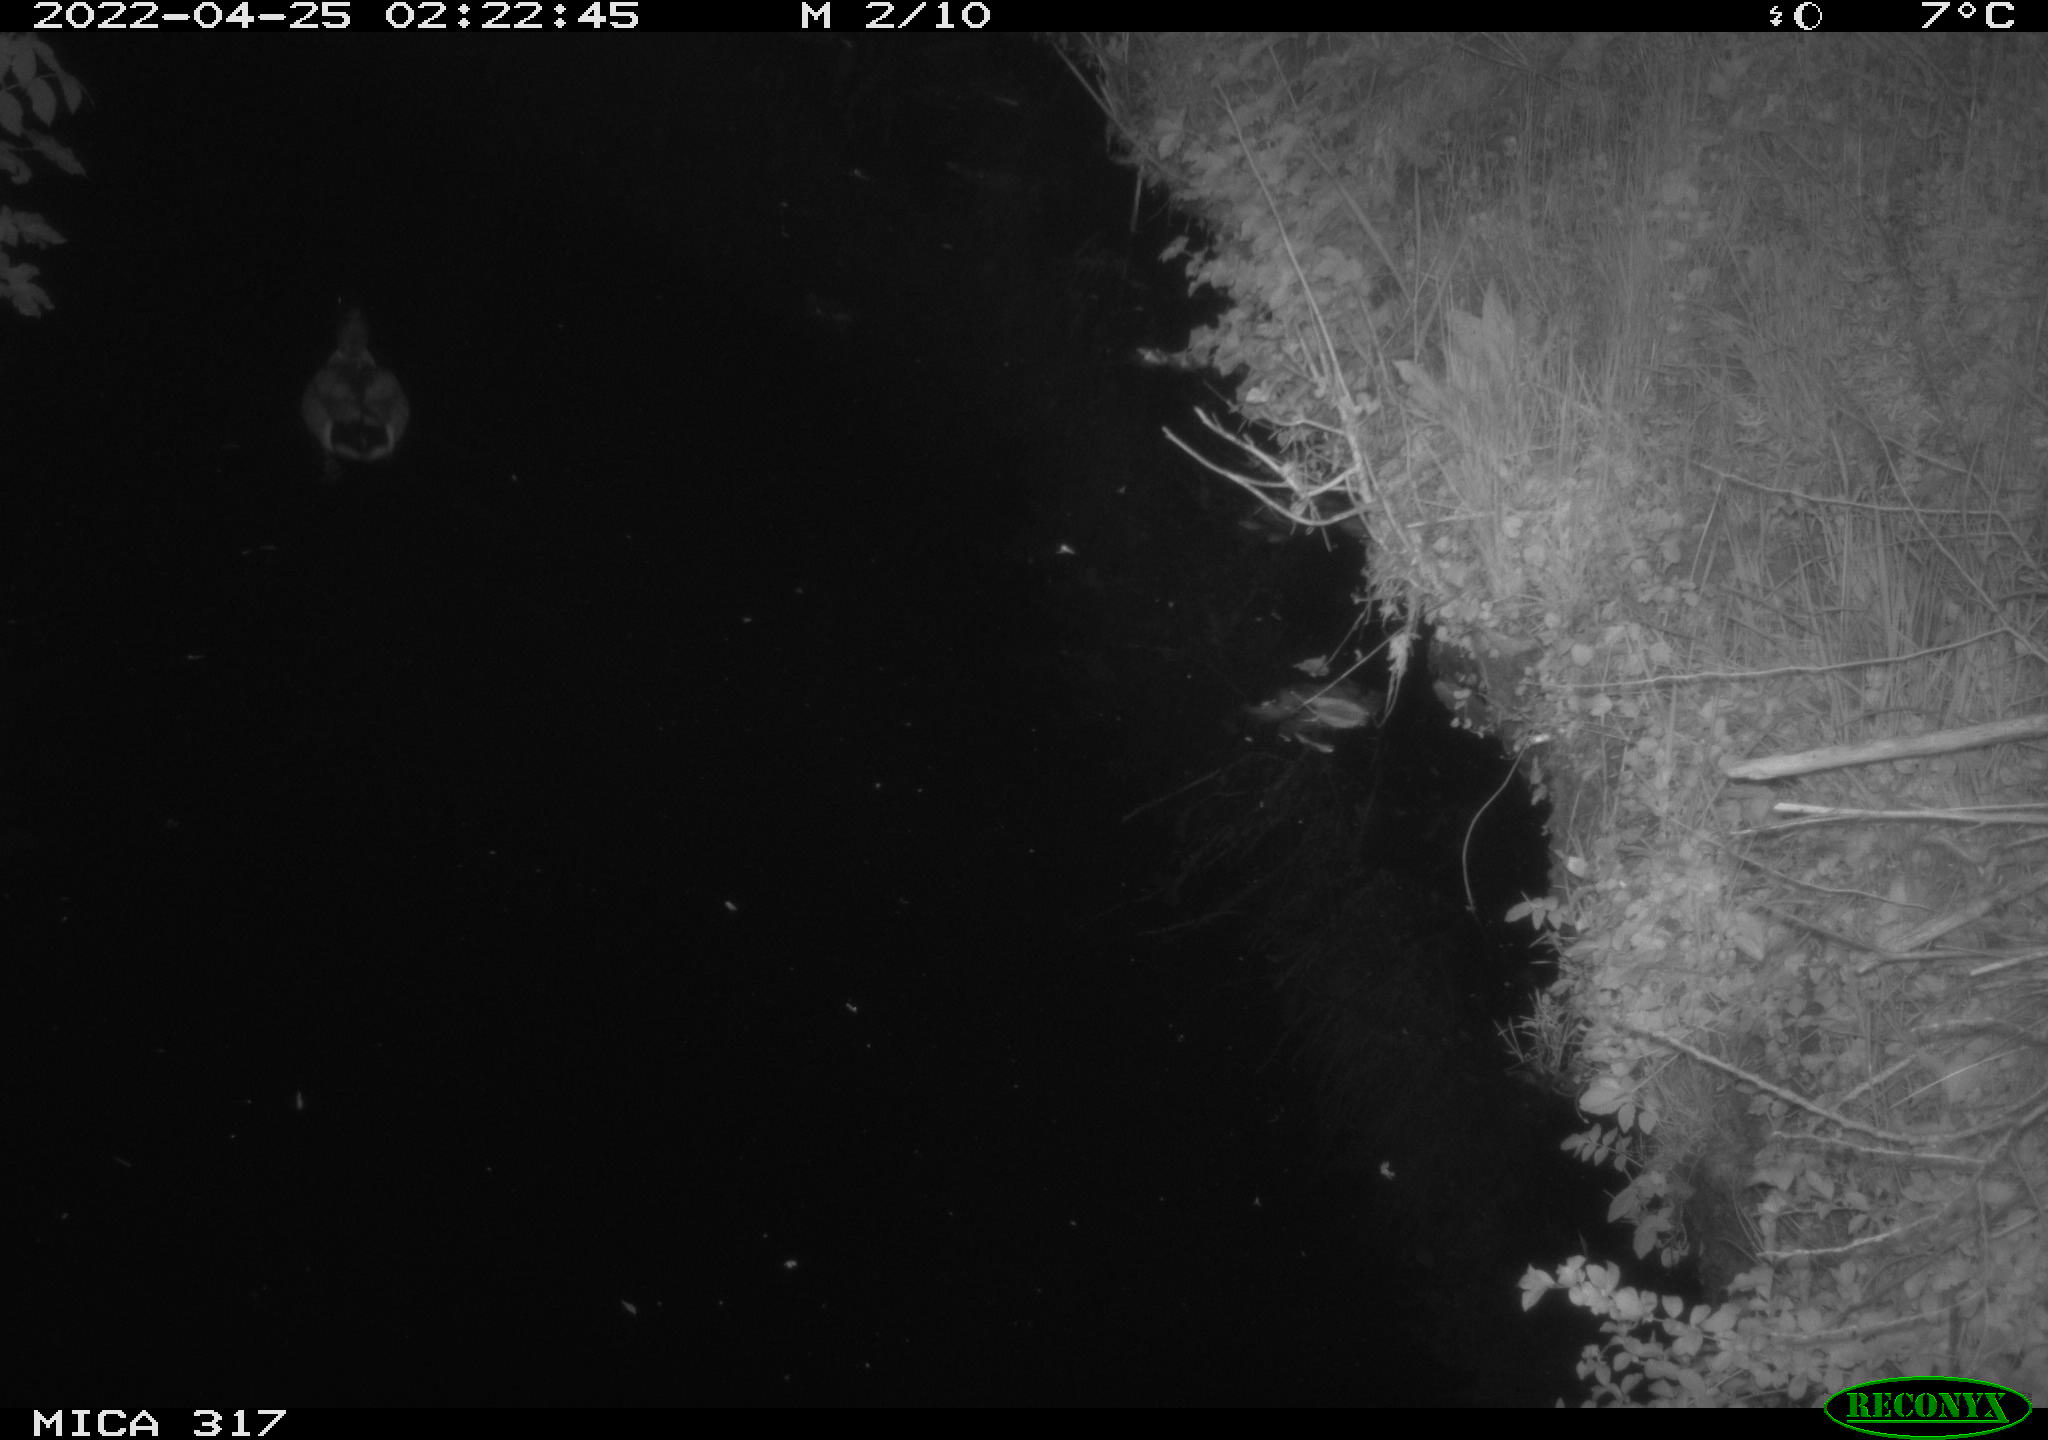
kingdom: Animalia
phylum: Chordata
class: Aves
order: Anseriformes
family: Anatidae
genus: Anas
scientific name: Anas platyrhynchos
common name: Mallard
